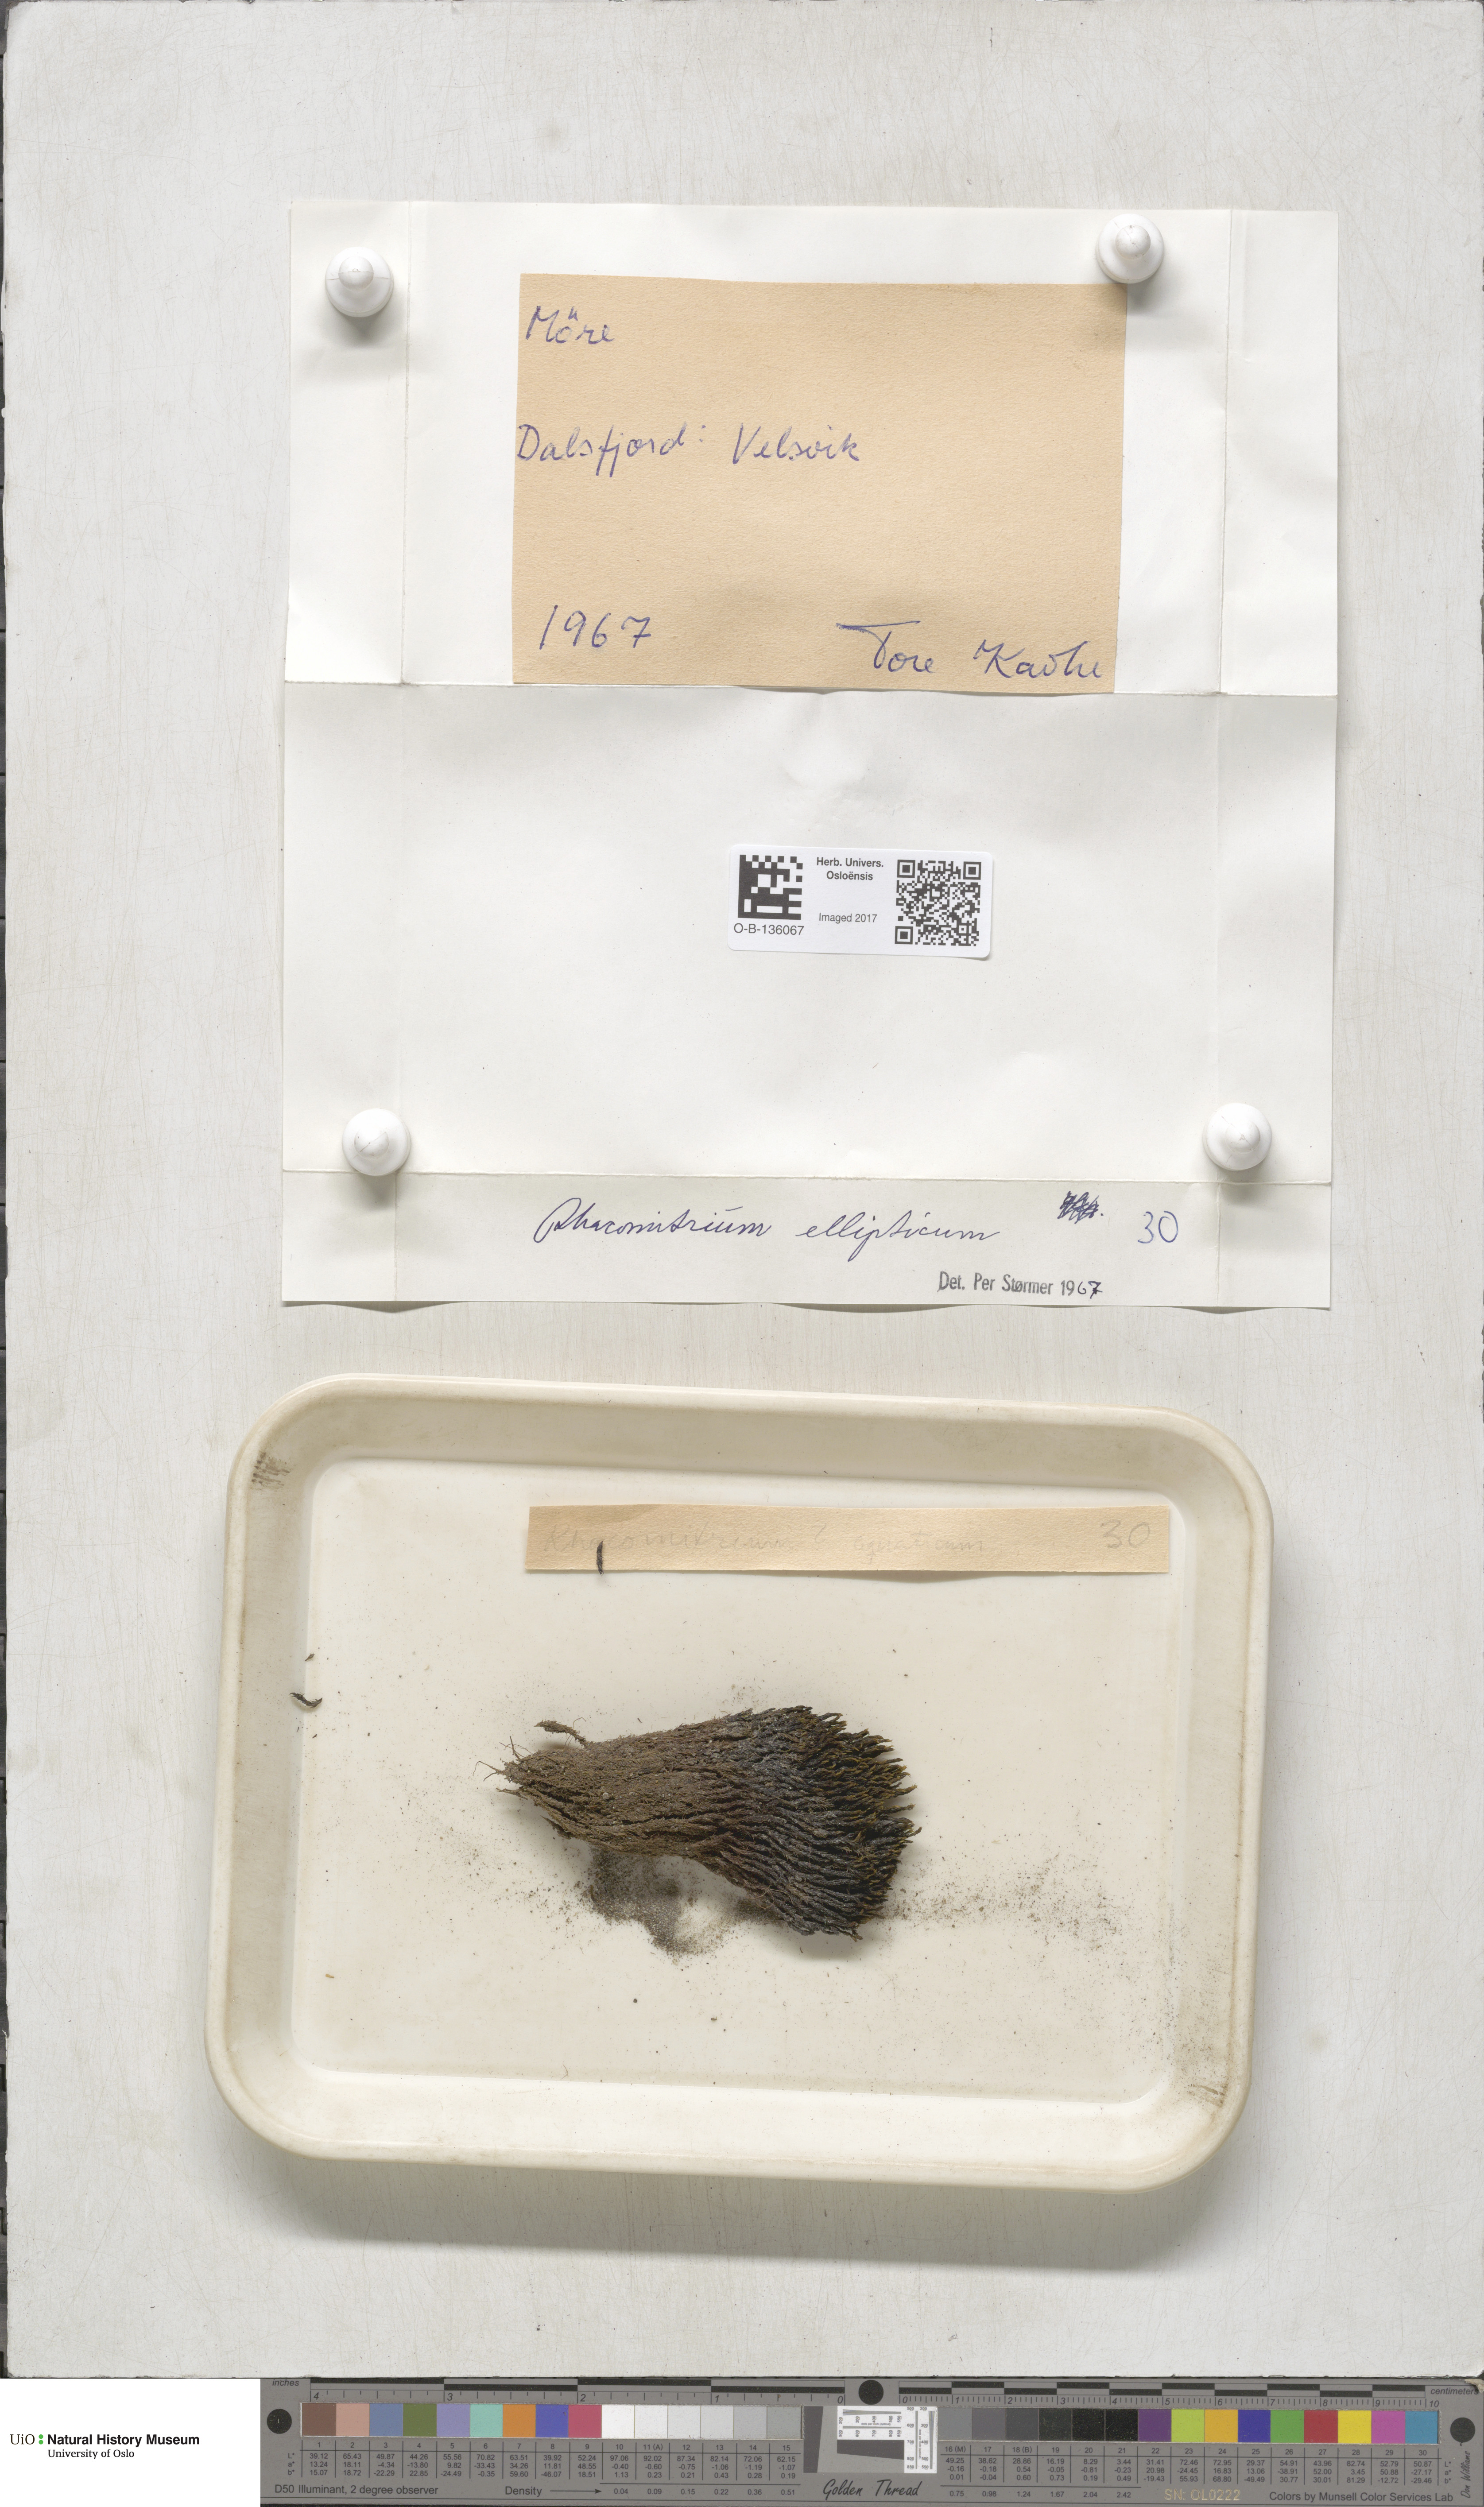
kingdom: Plantae
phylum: Bryophyta
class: Bryopsida
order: Grimmiales
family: Grimmiaceae
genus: Bucklandiella
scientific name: Bucklandiella elliptica
